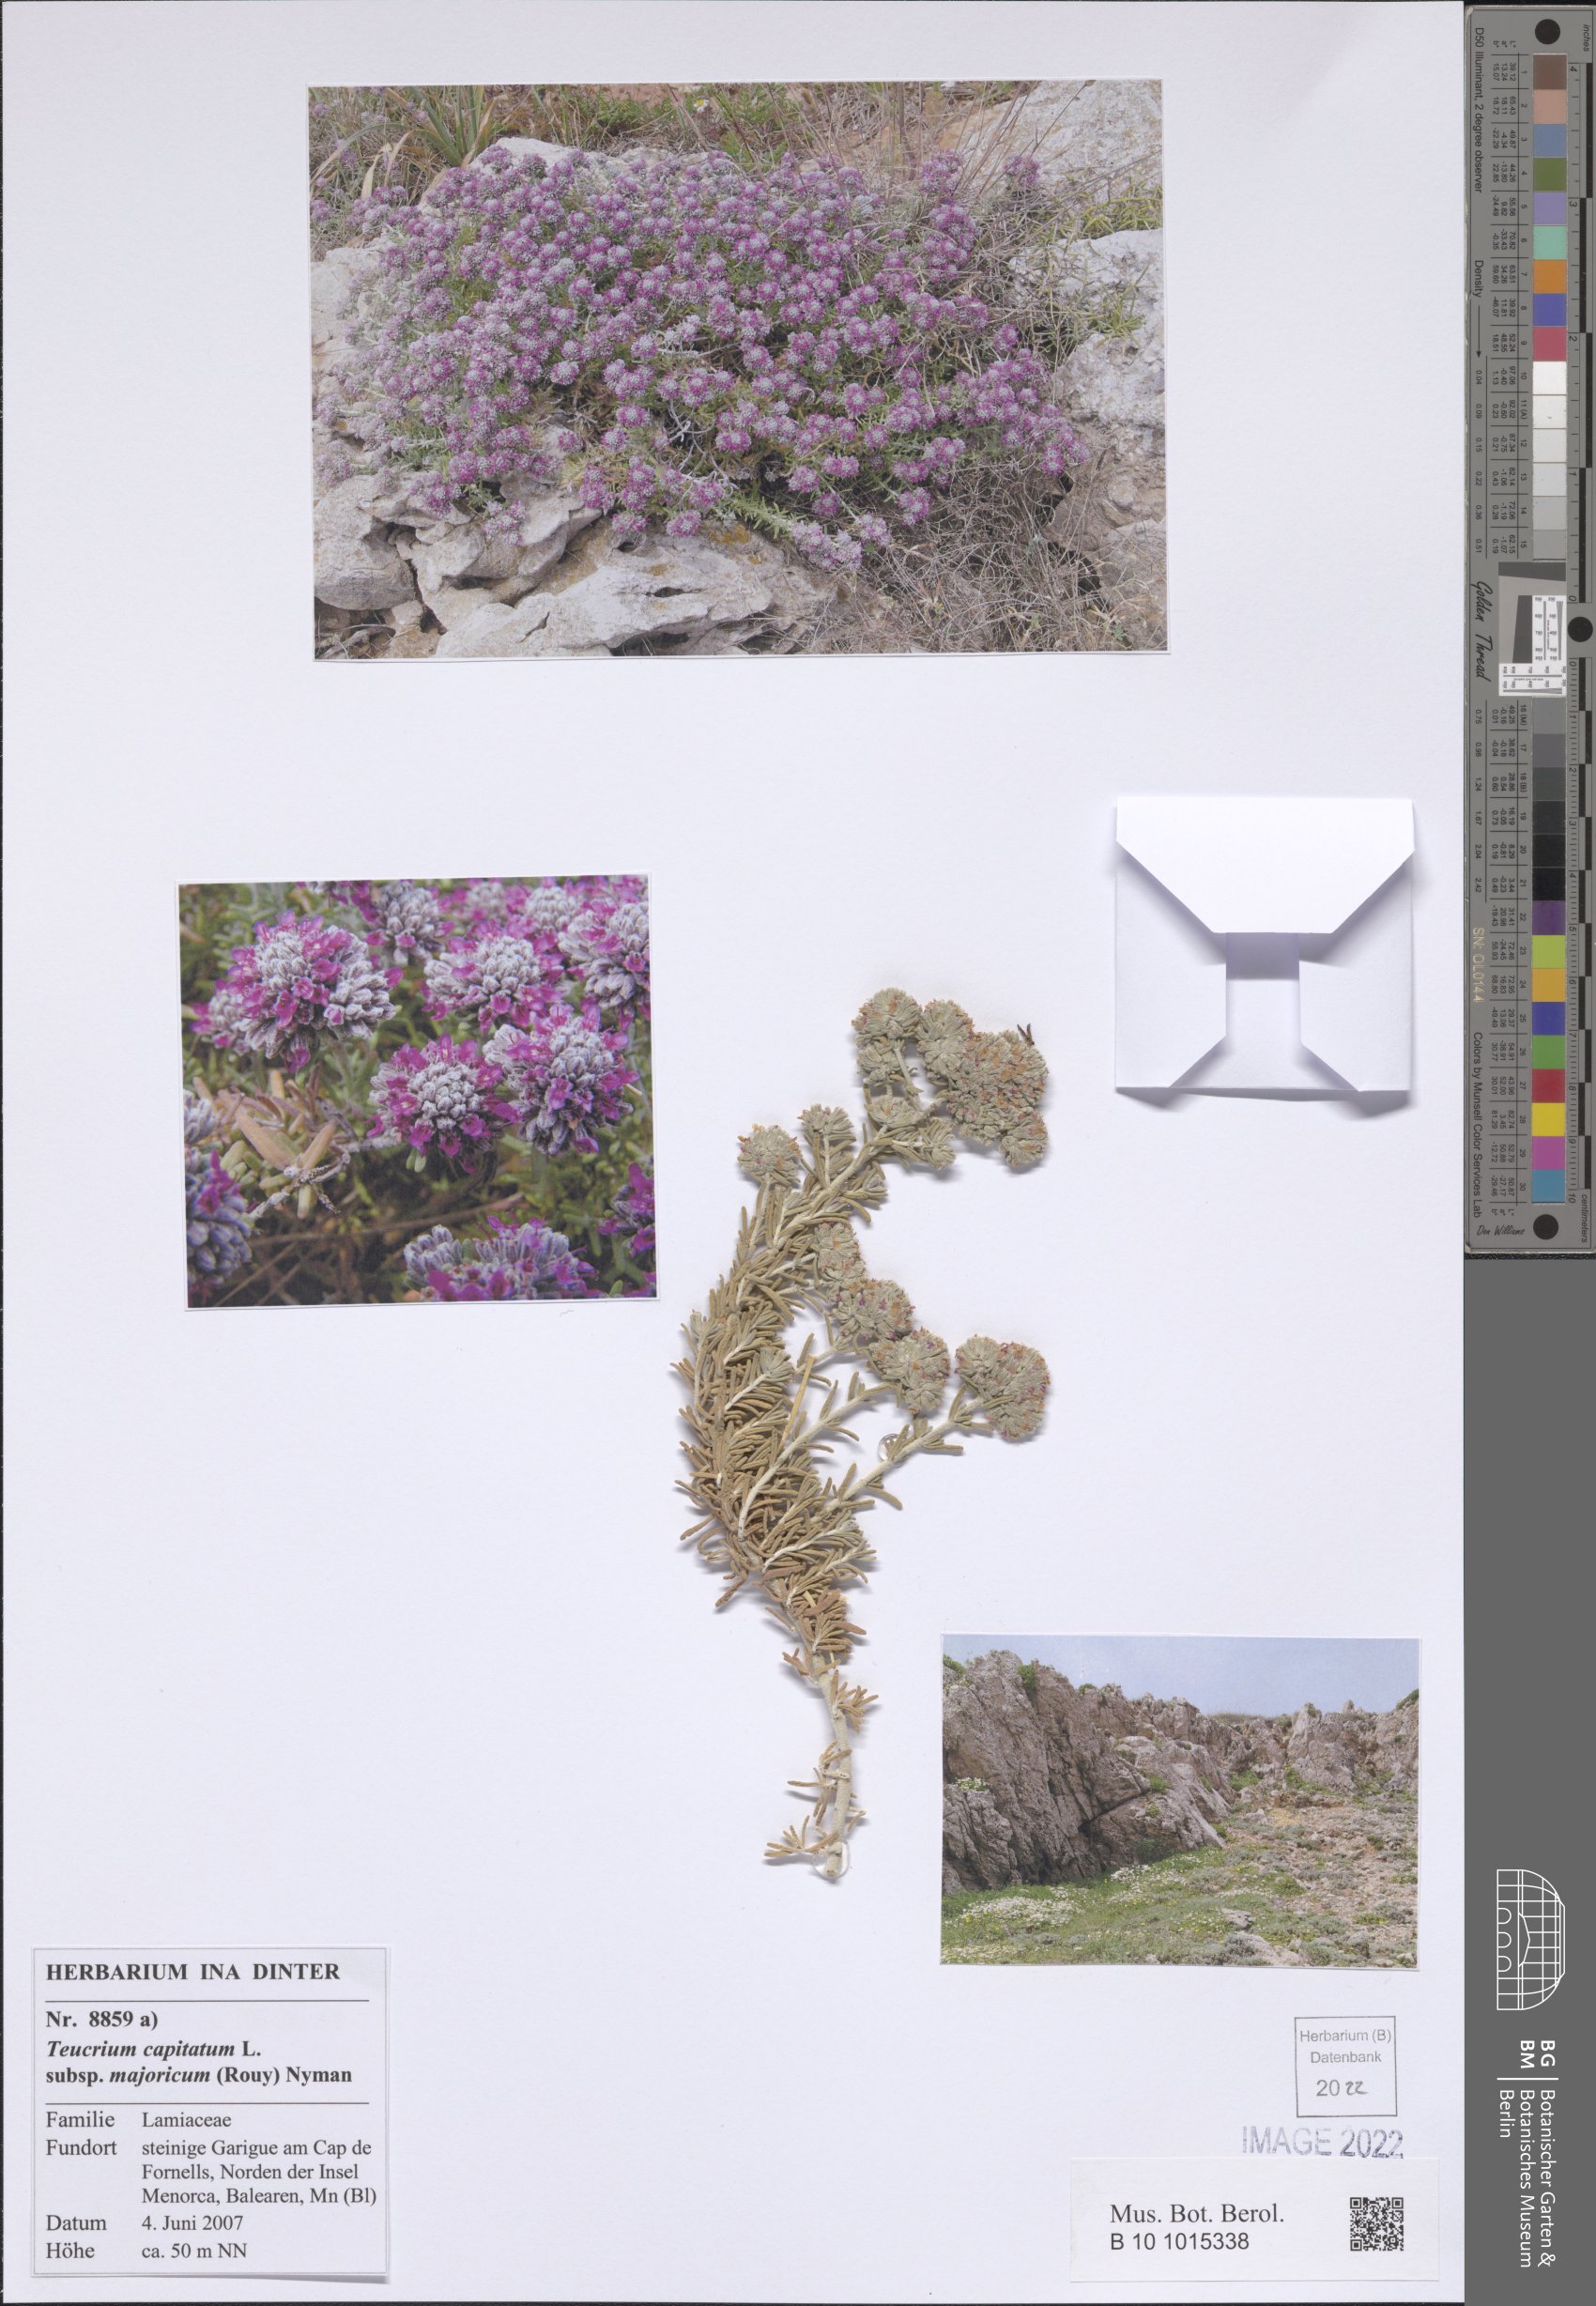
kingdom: Plantae
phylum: Tracheophyta
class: Magnoliopsida
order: Lamiales
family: Lamiaceae
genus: Teucrium
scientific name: Teucrium capitatum
